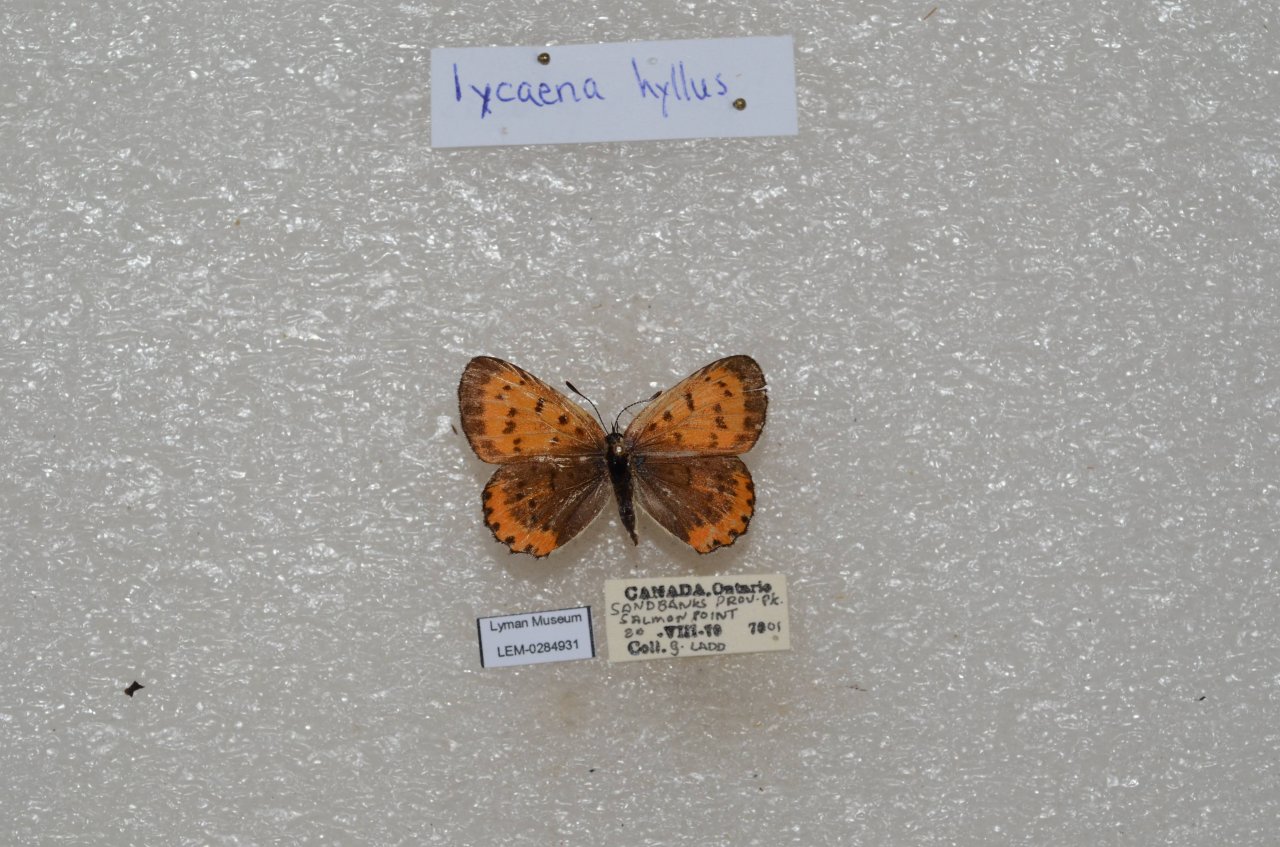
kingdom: Animalia
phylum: Arthropoda
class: Insecta
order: Lepidoptera
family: Sesiidae
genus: Sesia
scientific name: Sesia Lycaena hyllus
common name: Bronze Copper
